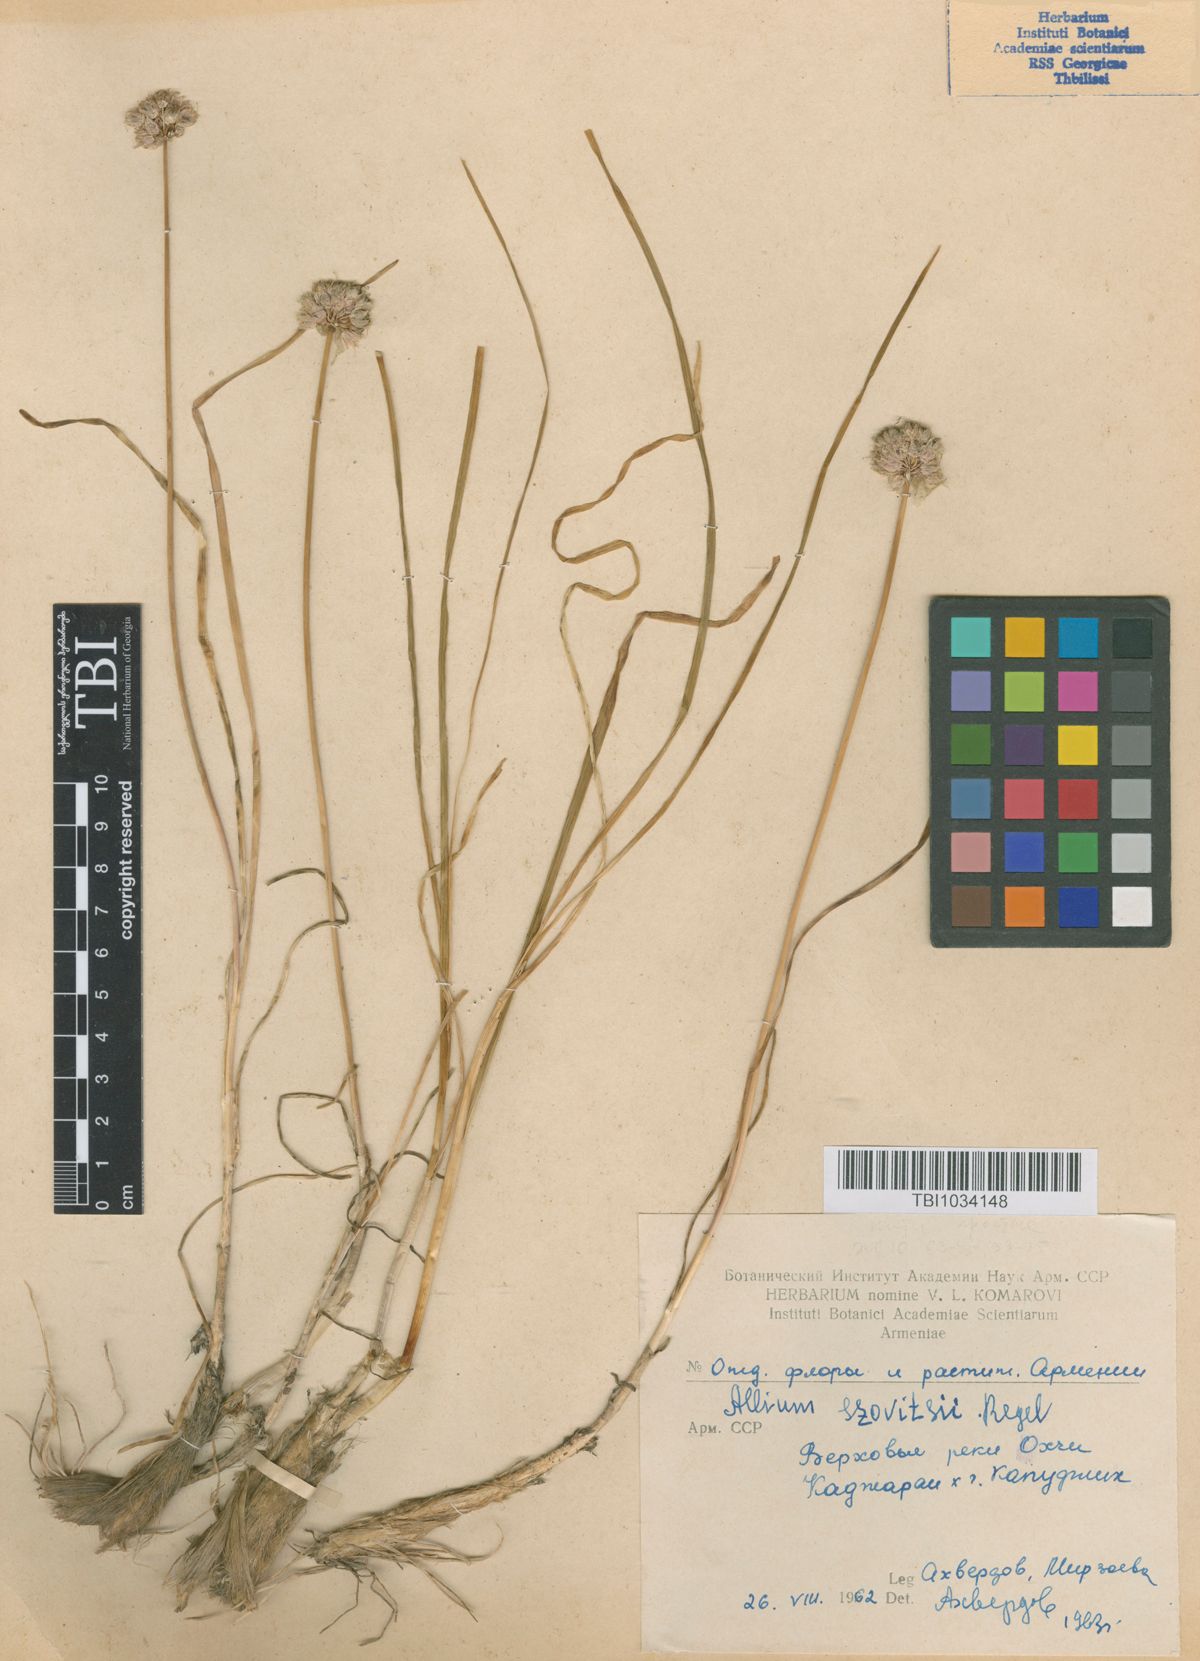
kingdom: Plantae
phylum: Tracheophyta
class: Liliopsida
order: Asparagales
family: Amaryllidaceae
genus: Allium
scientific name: Allium szovitsii
